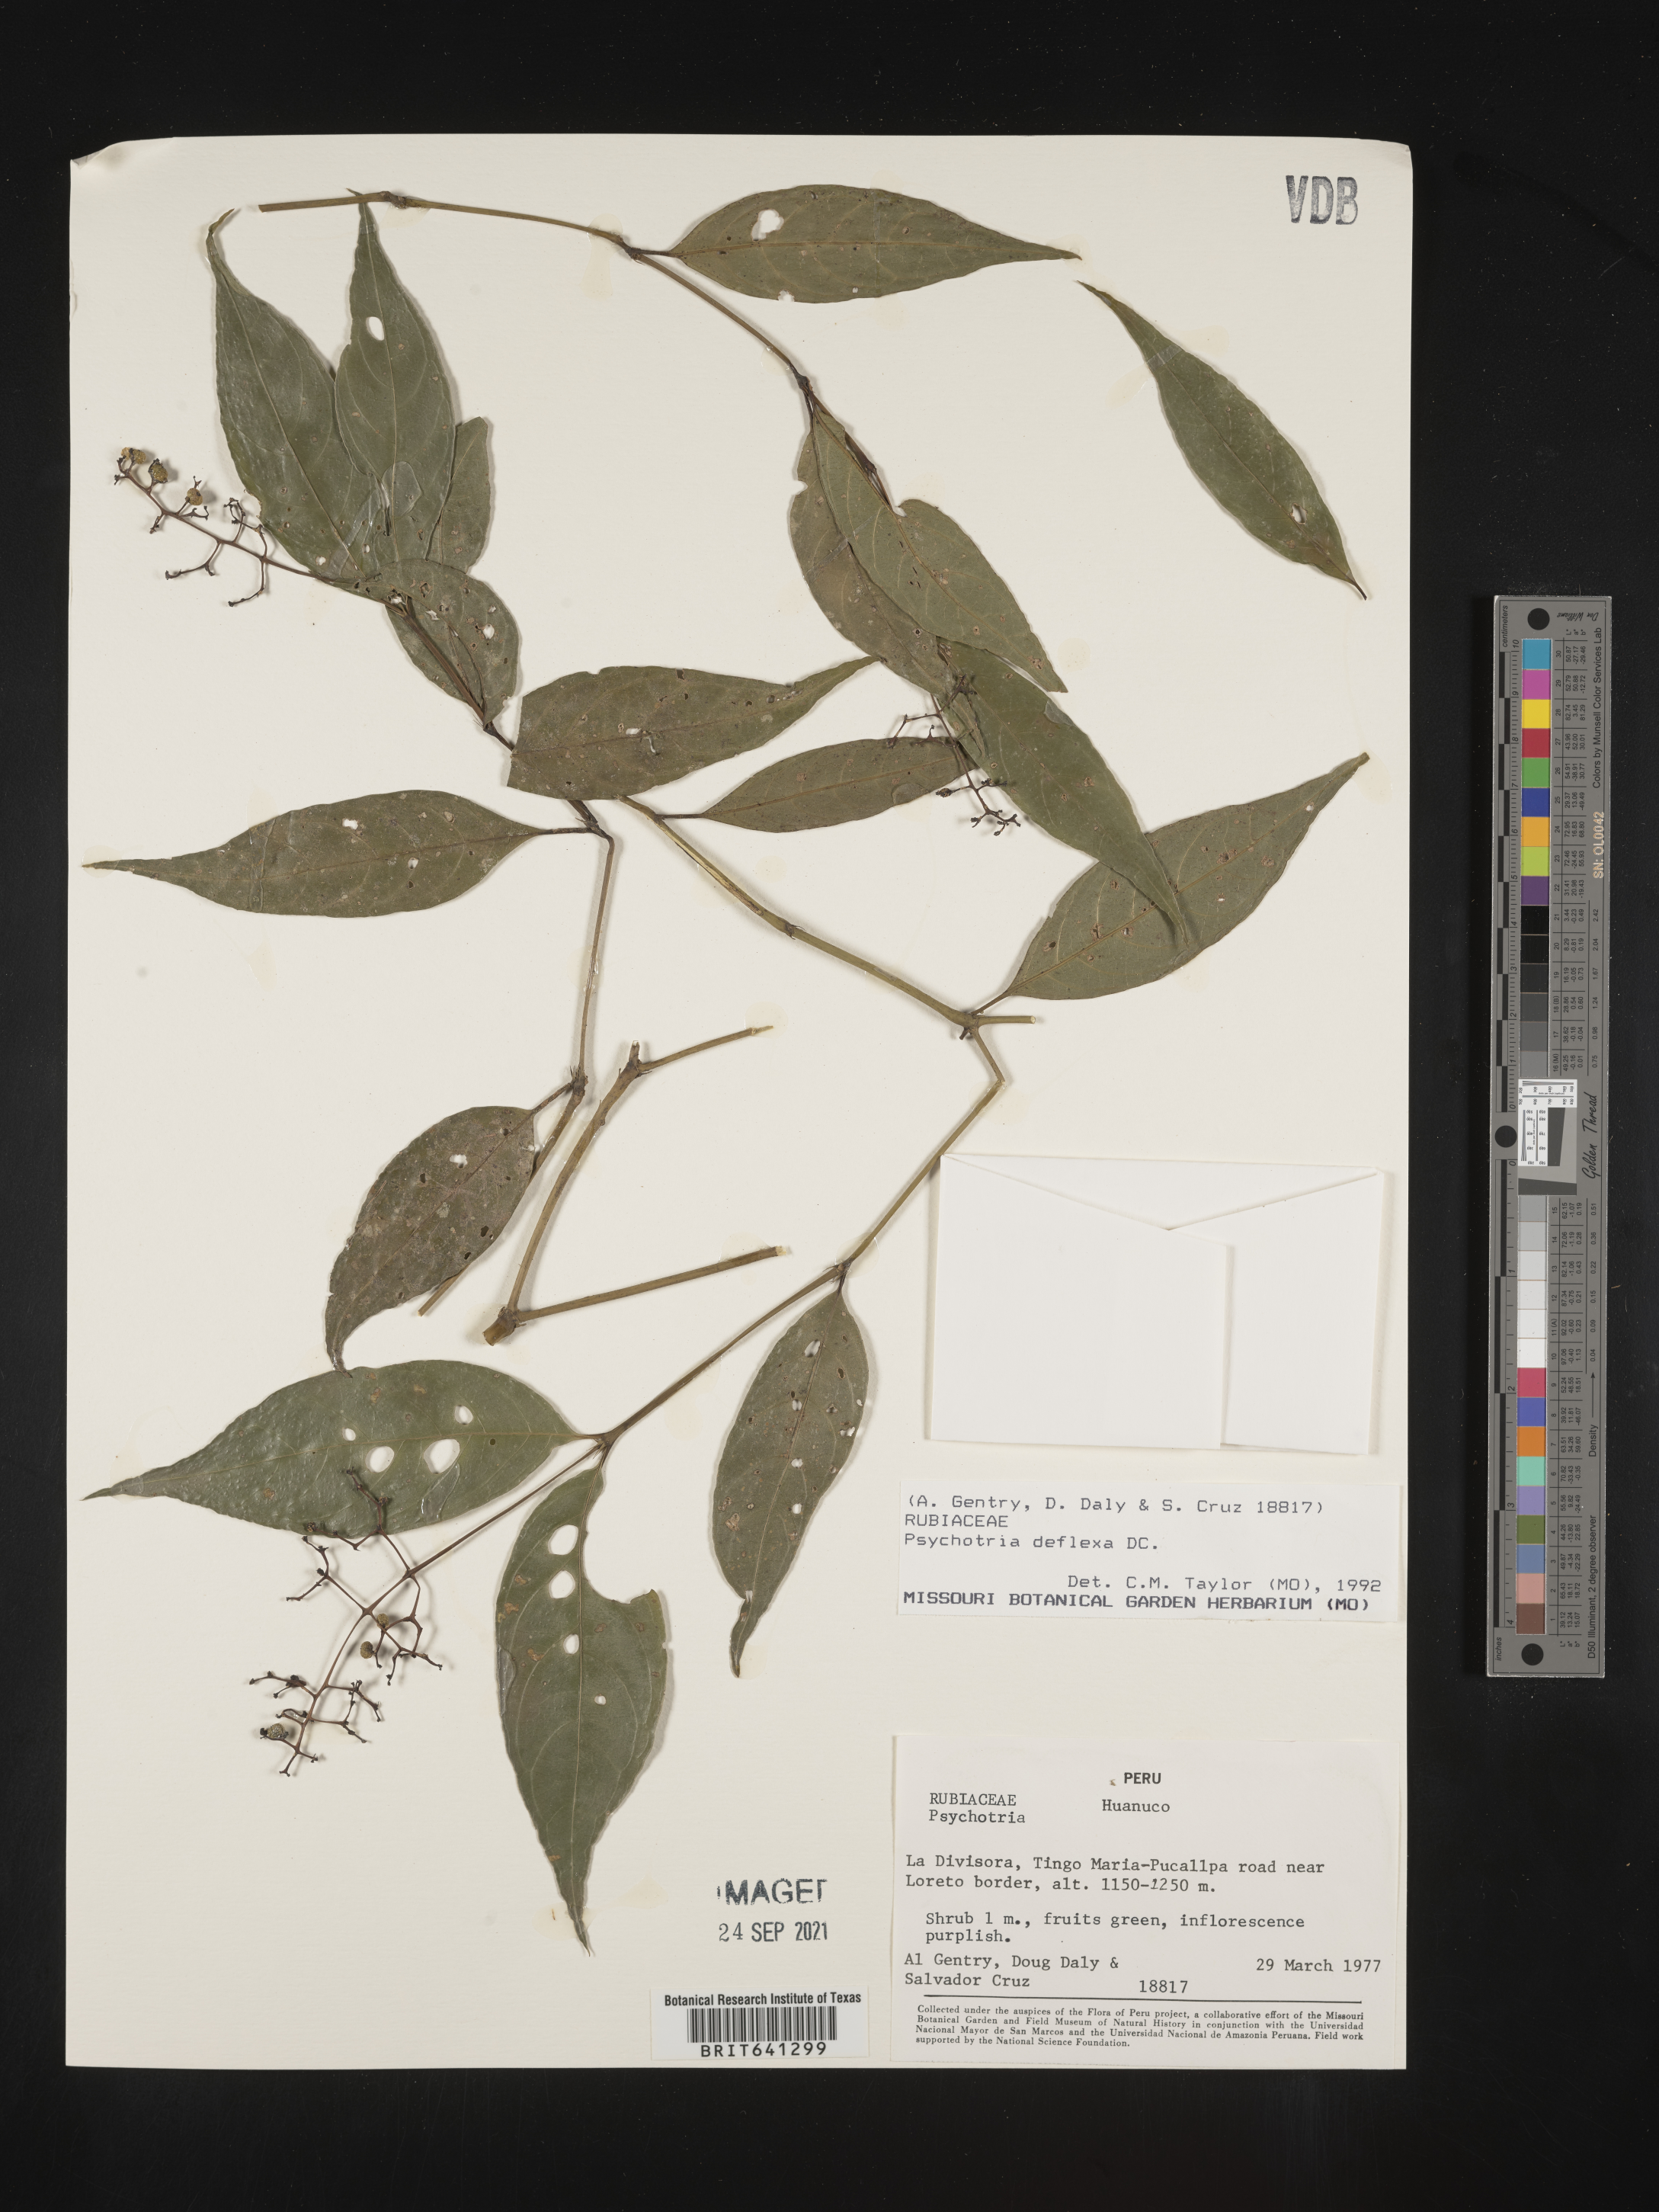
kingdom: Plantae
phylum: Tracheophyta
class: Magnoliopsida
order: Gentianales
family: Rubiaceae
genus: Psychotria
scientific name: Psychotria
